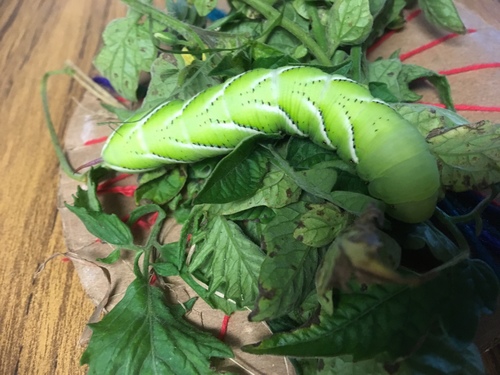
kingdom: Animalia
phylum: Arthropoda
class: Insecta
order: Lepidoptera
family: Sphingidae
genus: Manduca
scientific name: Manduca sexta
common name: Carolina sphinx
